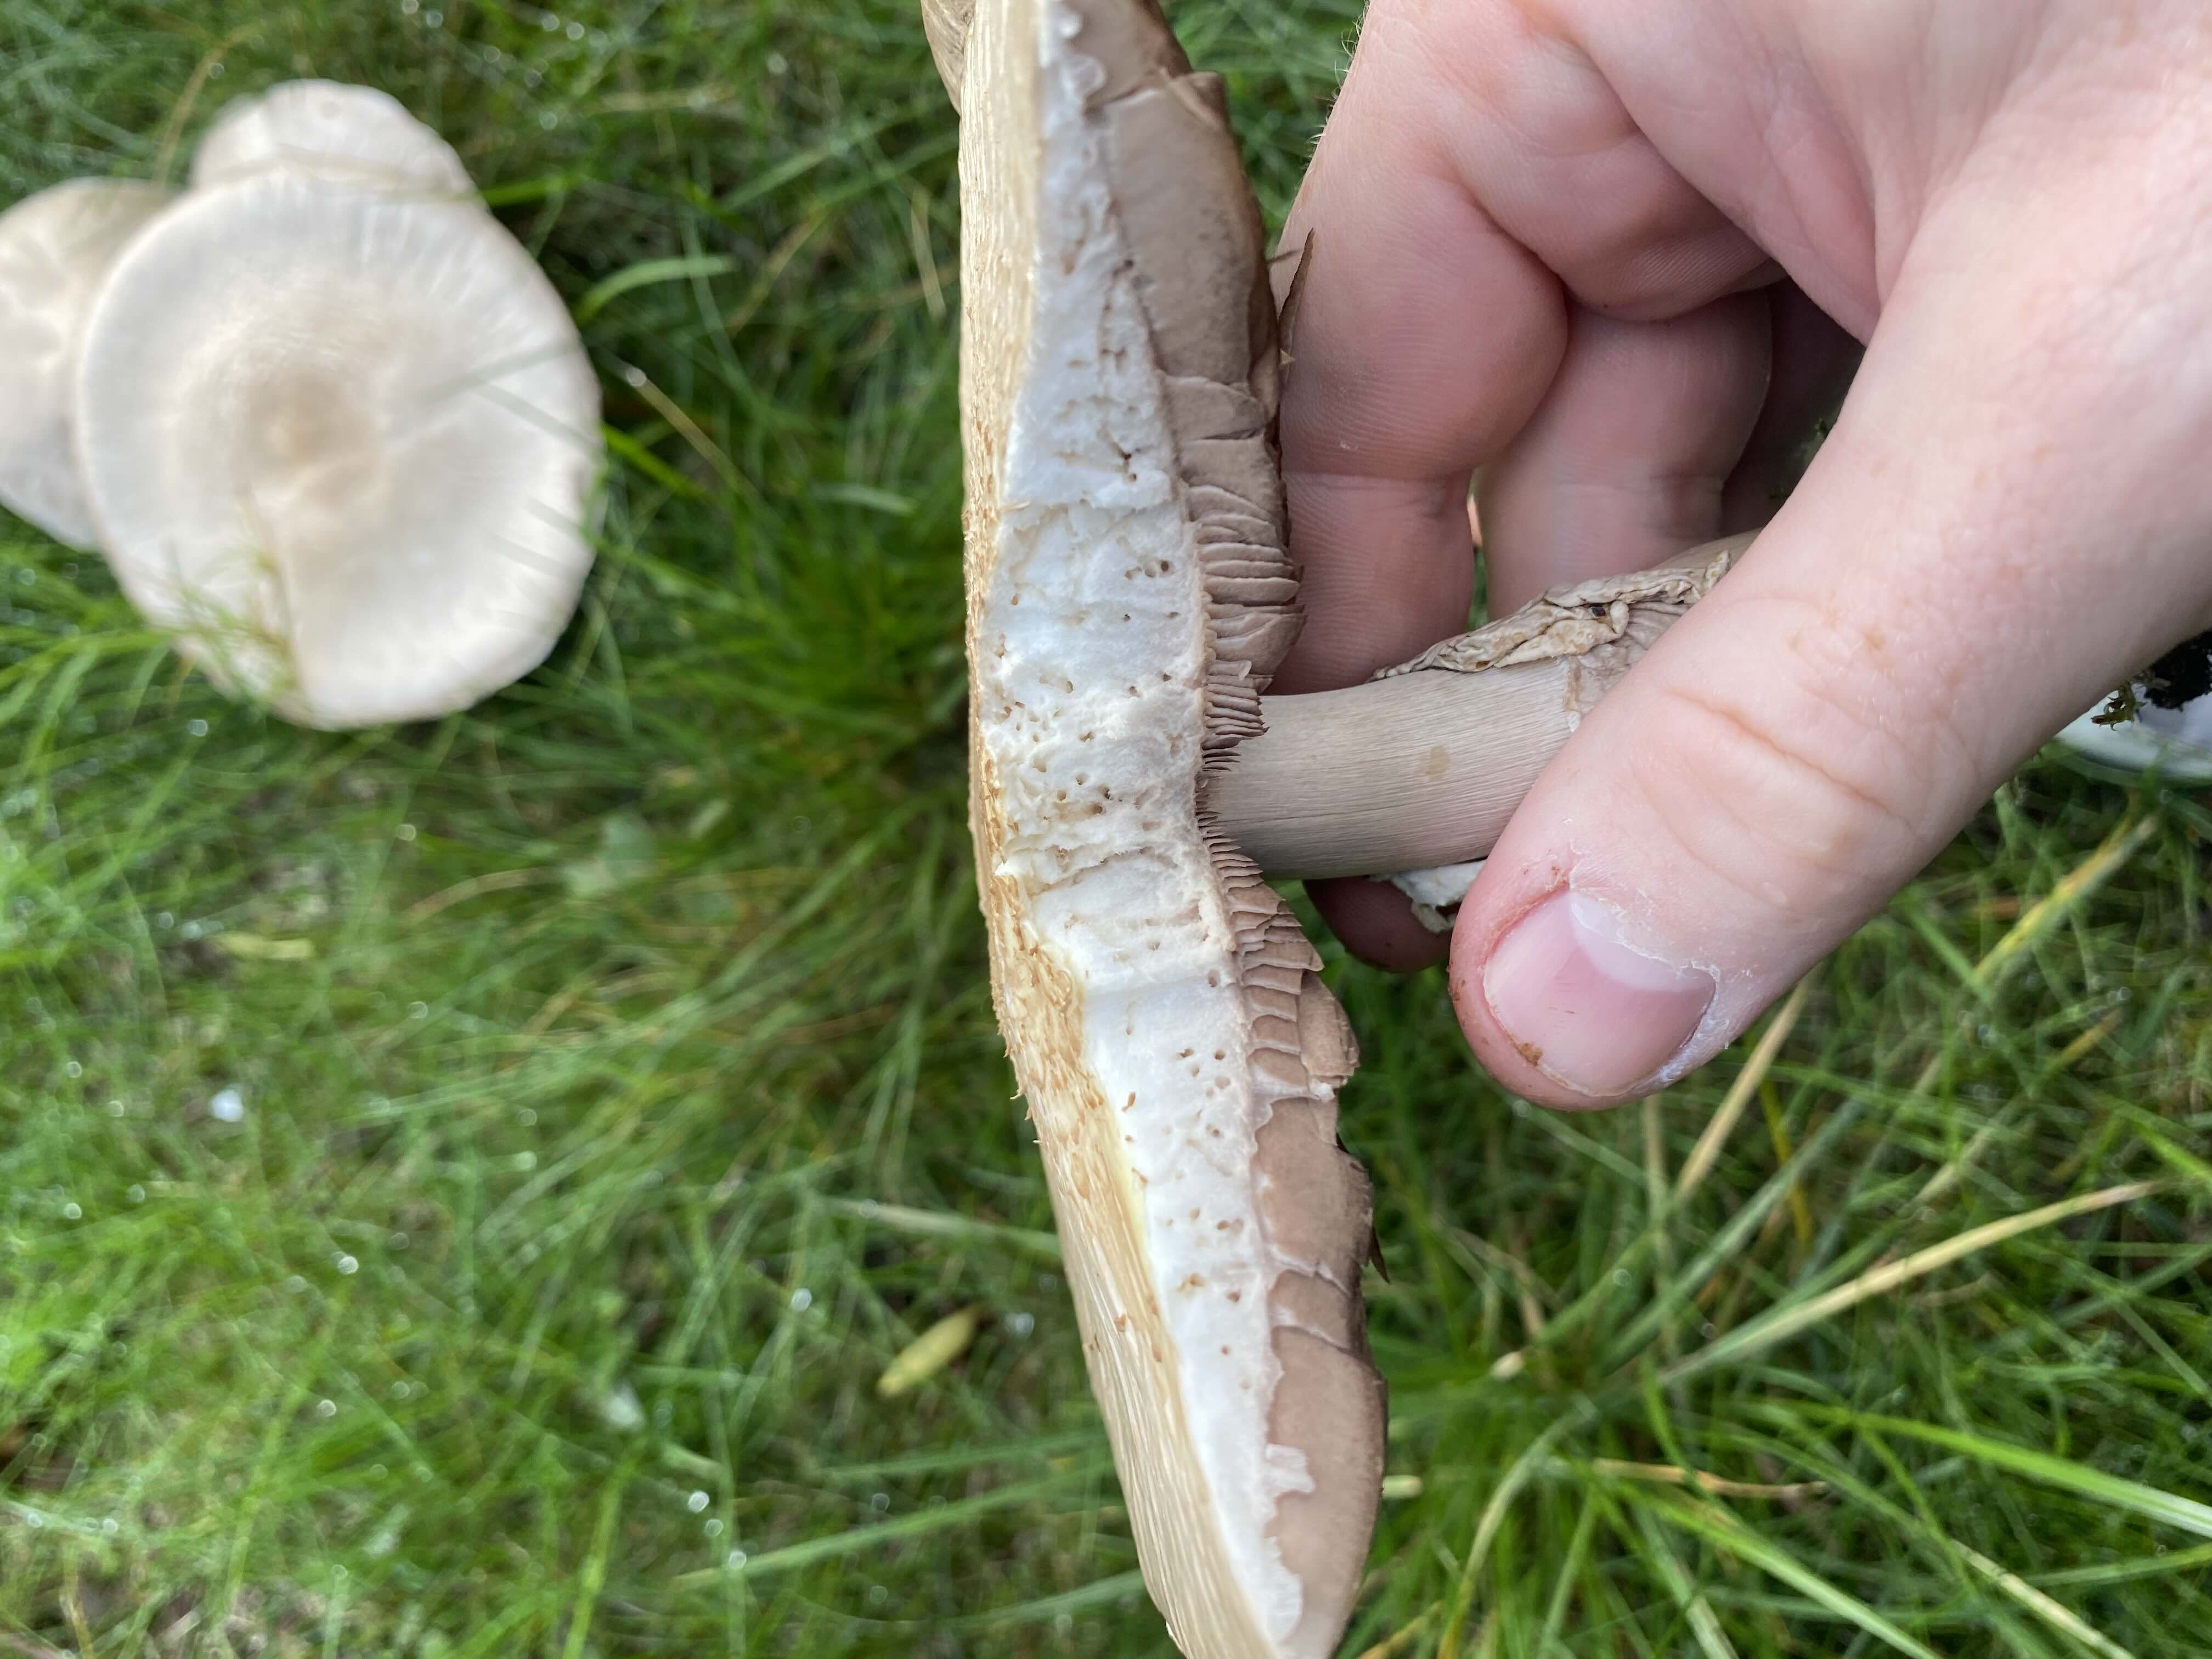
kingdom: Fungi
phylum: Basidiomycota
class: Agaricomycetes
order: Agaricales
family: Agaricaceae
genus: Agaricus
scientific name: Agaricus
